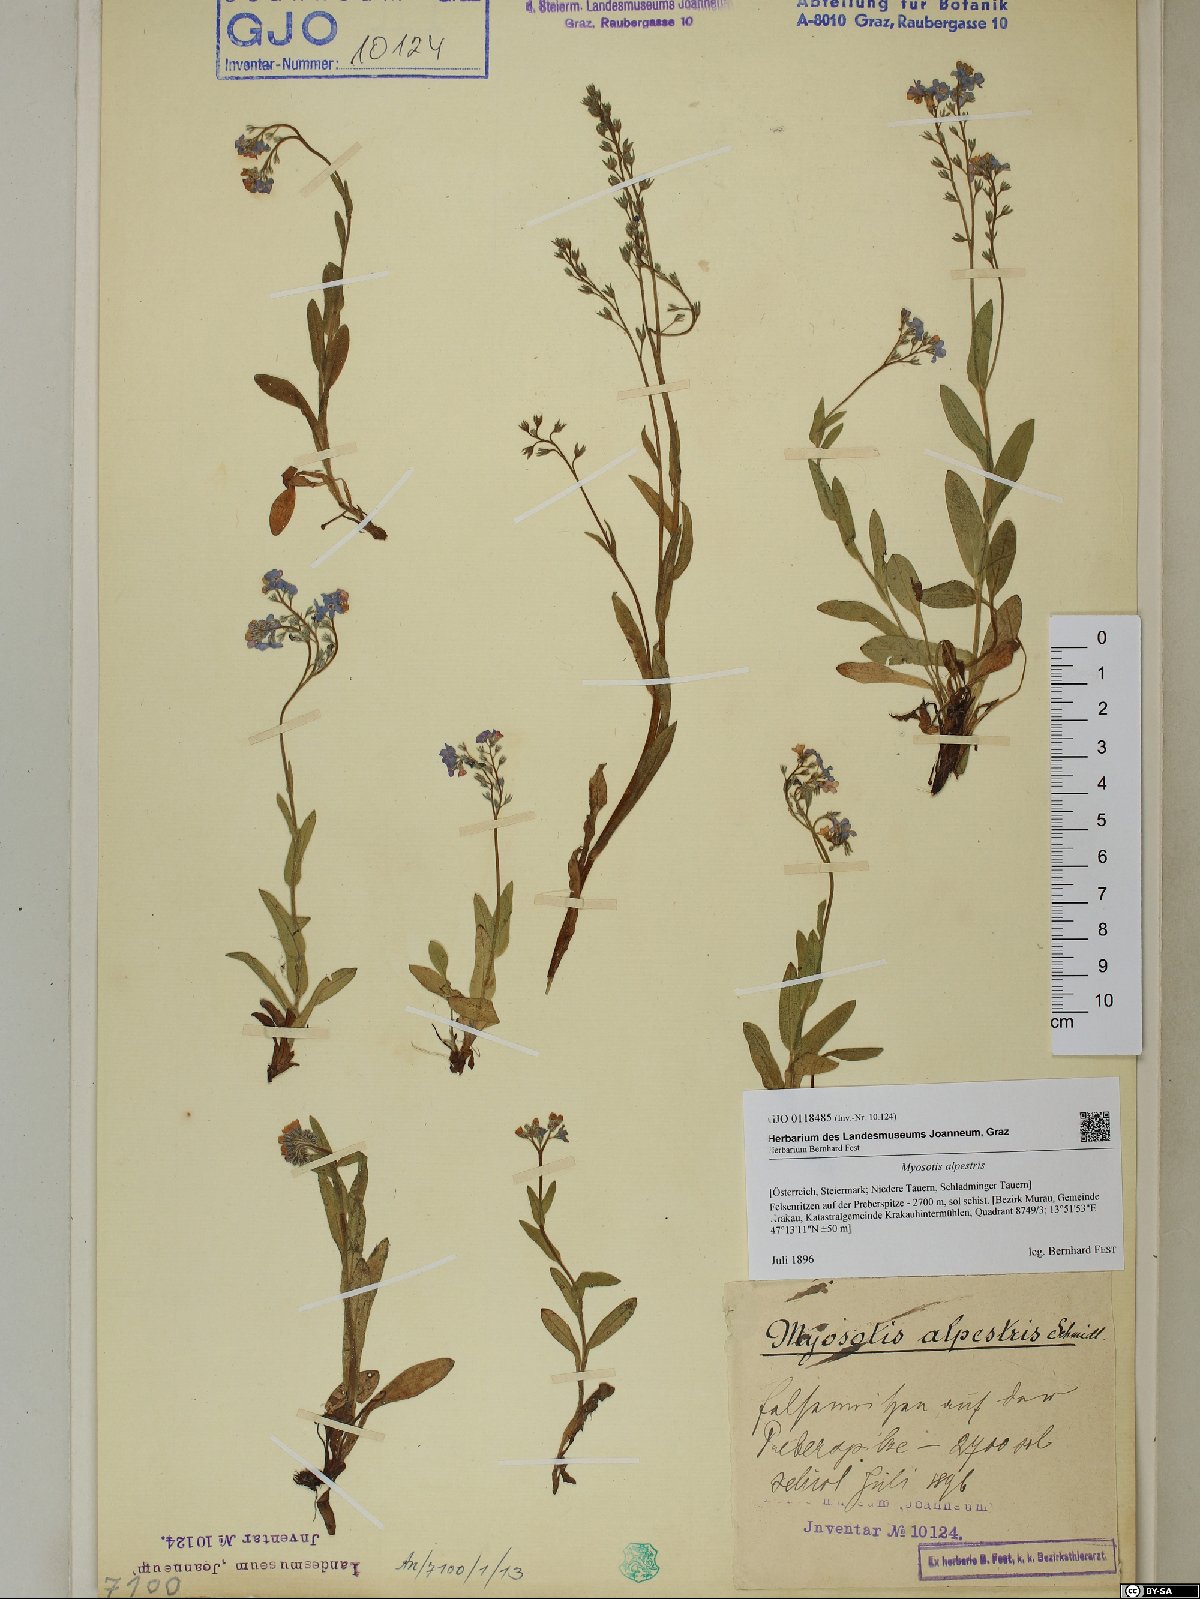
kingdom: Plantae
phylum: Tracheophyta
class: Magnoliopsida
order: Boraginales
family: Boraginaceae
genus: Myosotis
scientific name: Myosotis alpestris
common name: Alpine forget-me-not
